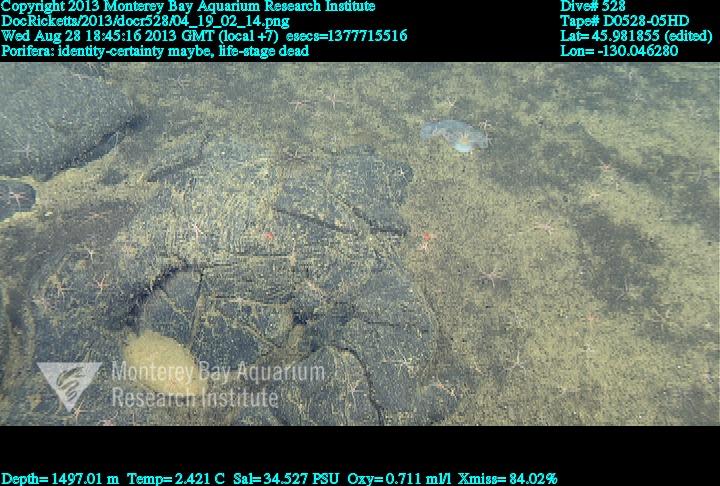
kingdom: Animalia
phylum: Porifera
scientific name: Porifera
